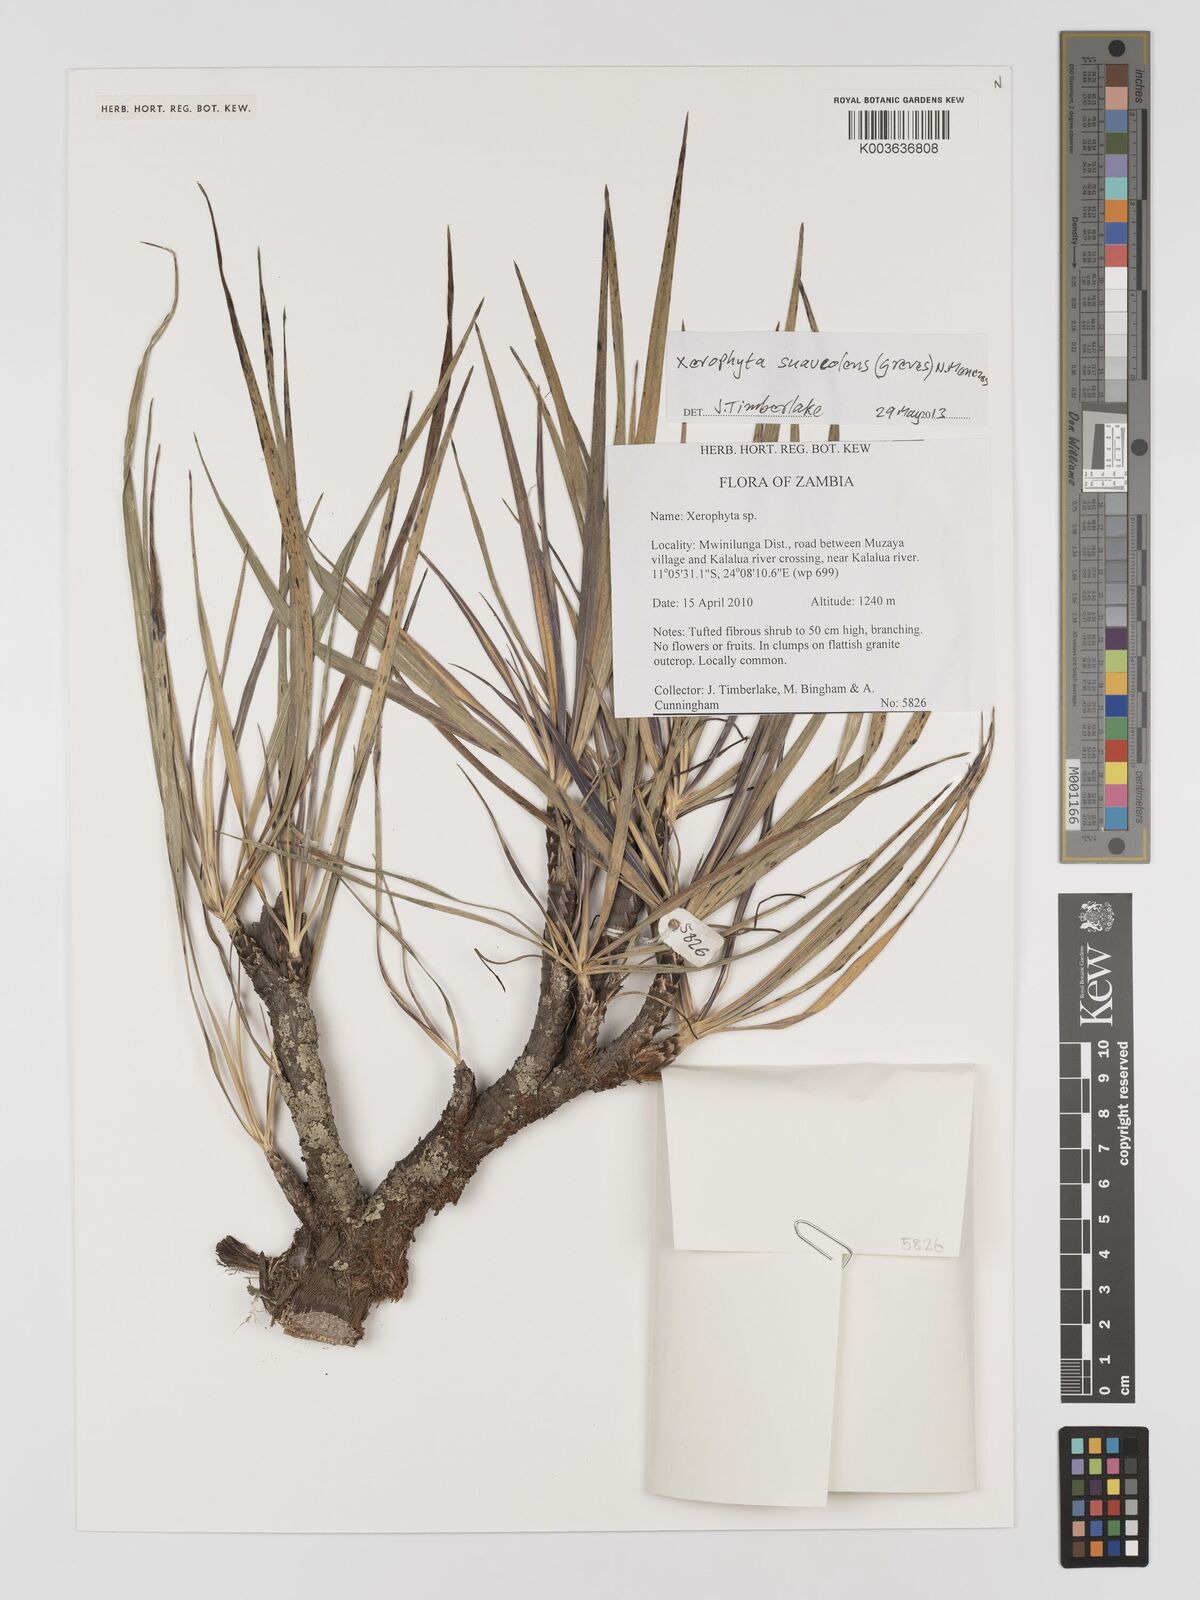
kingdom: Plantae
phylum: Tracheophyta
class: Liliopsida
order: Pandanales
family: Velloziaceae
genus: Xerophyta
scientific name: Xerophyta suaveolens
